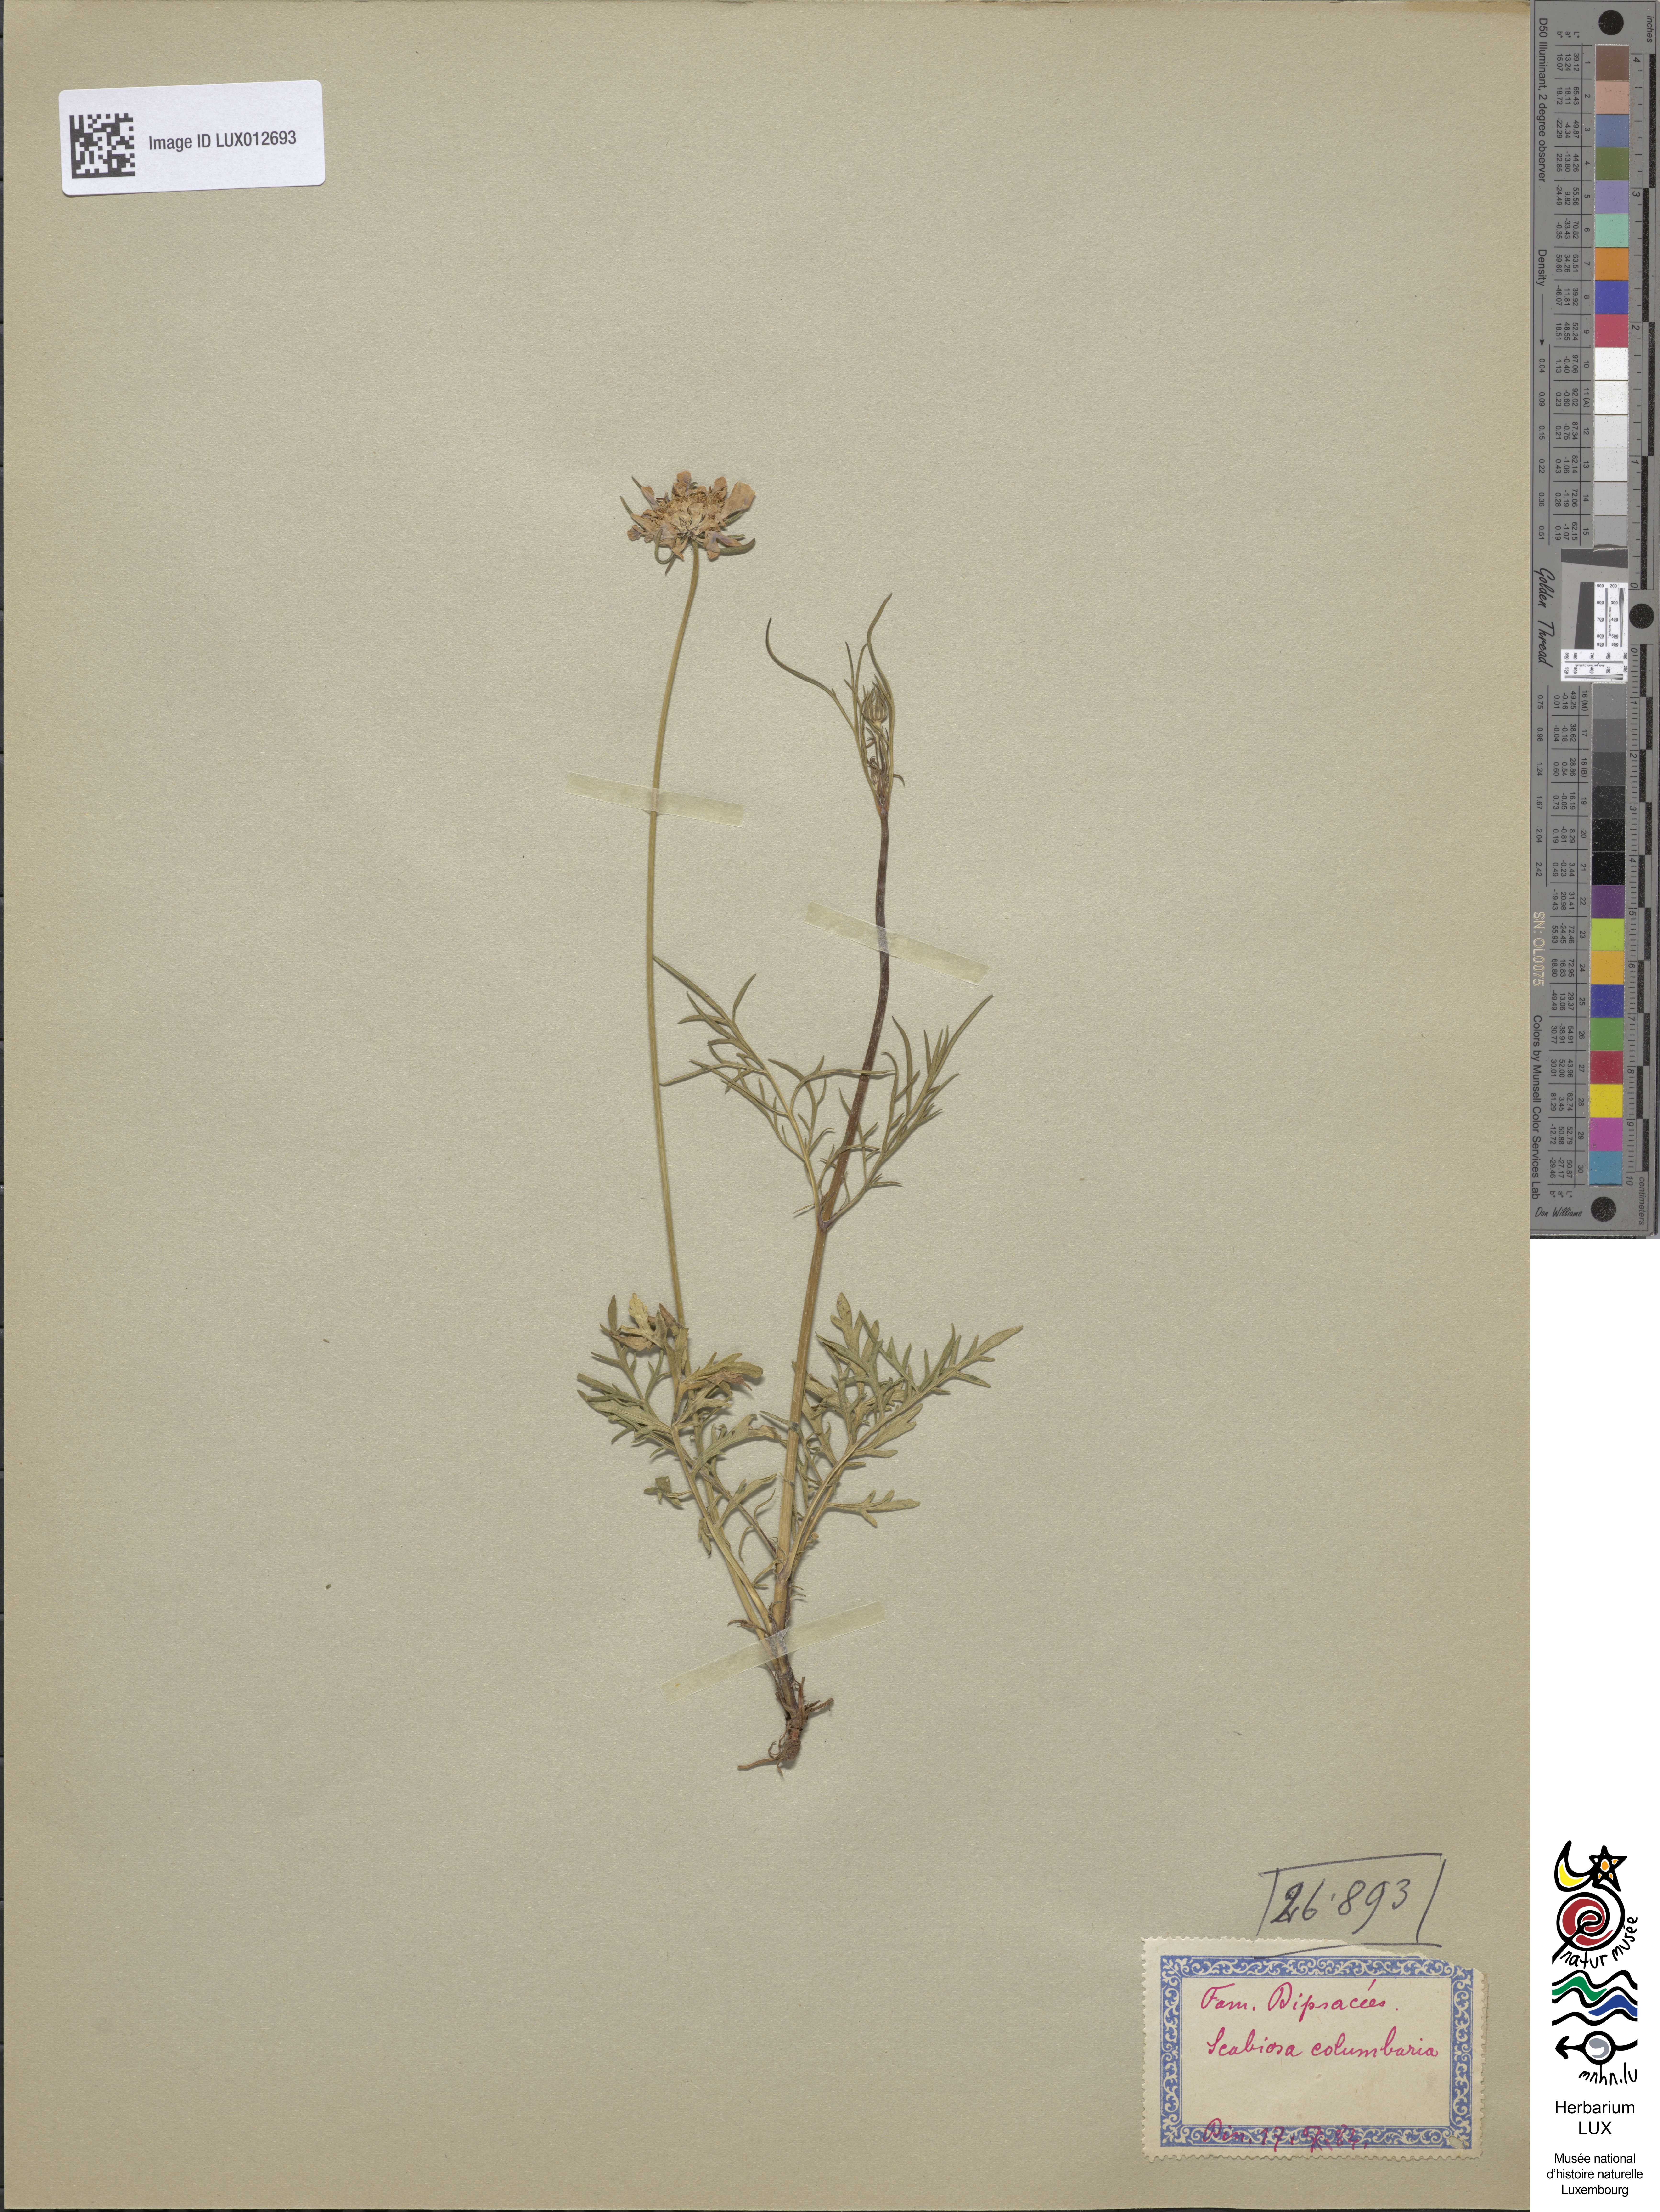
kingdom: Plantae
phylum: Tracheophyta
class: Magnoliopsida
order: Dipsacales
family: Caprifoliaceae
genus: Scabiosa
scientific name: Scabiosa columbaria
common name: Small scabious
